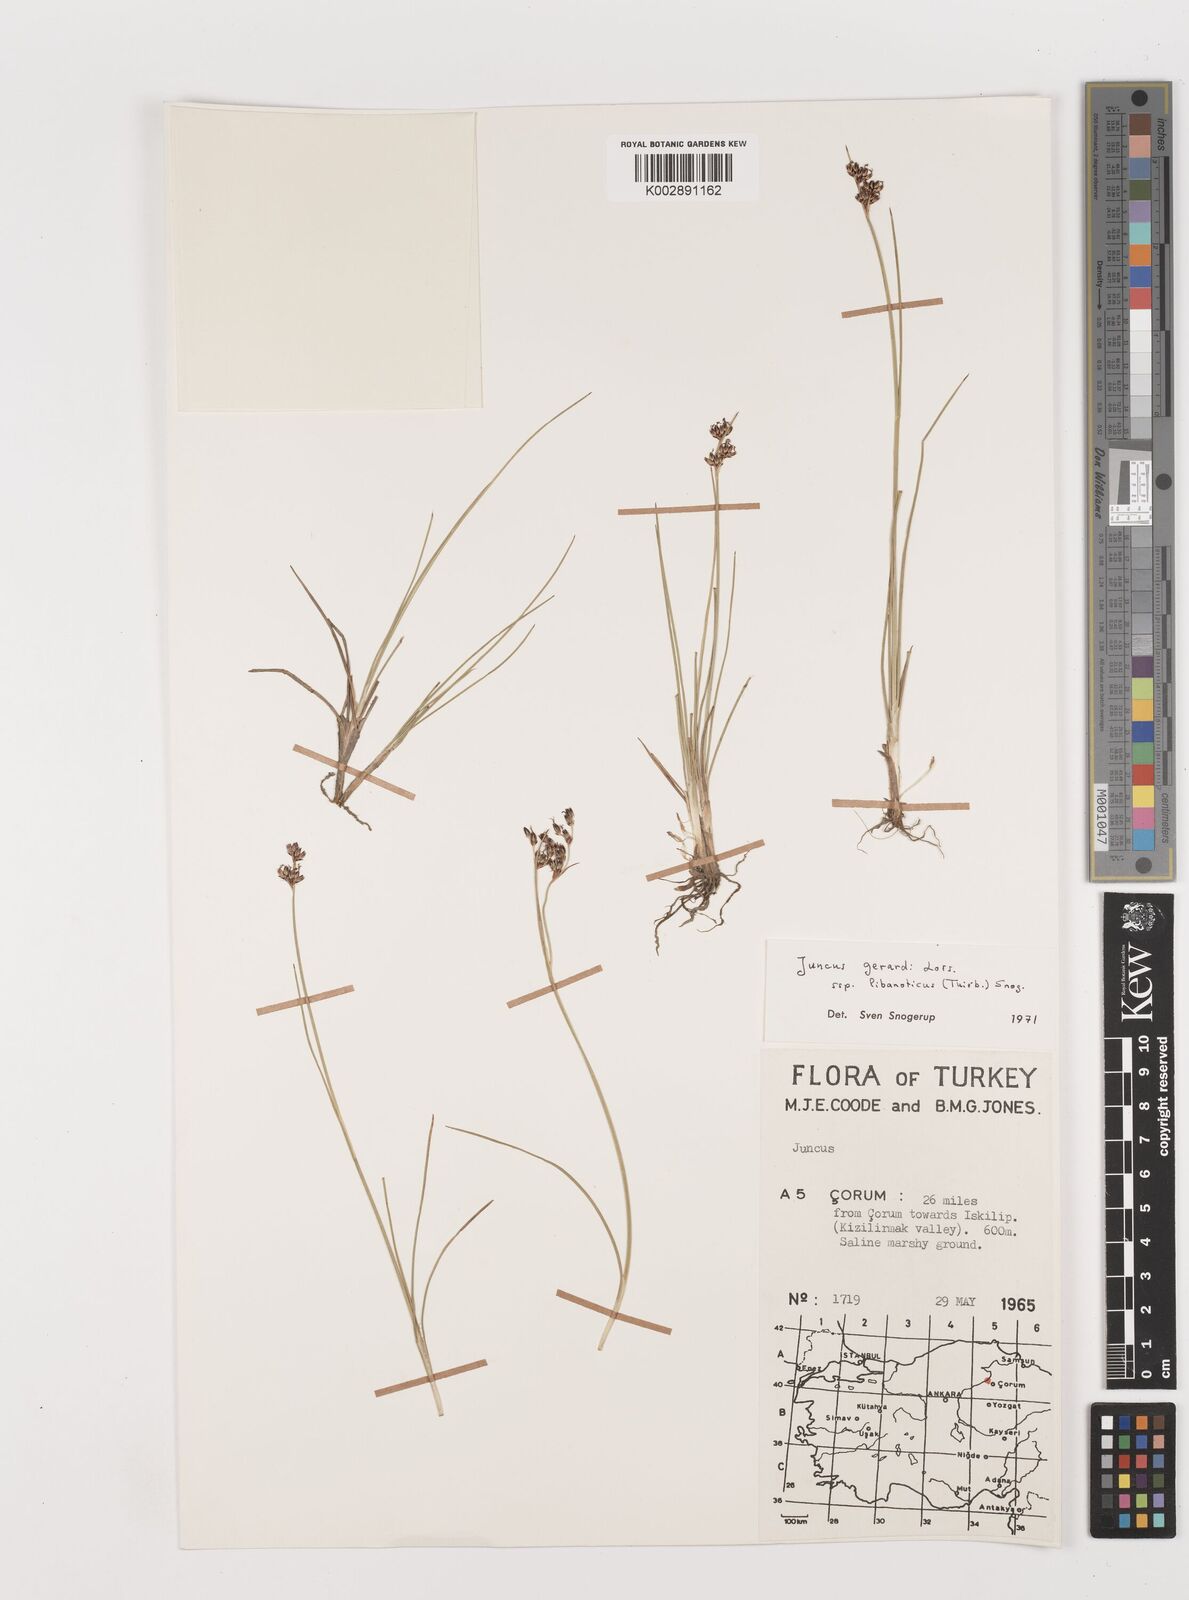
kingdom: Plantae
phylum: Tracheophyta
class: Liliopsida
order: Poales
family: Juncaceae
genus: Juncus
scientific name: Juncus persicus
